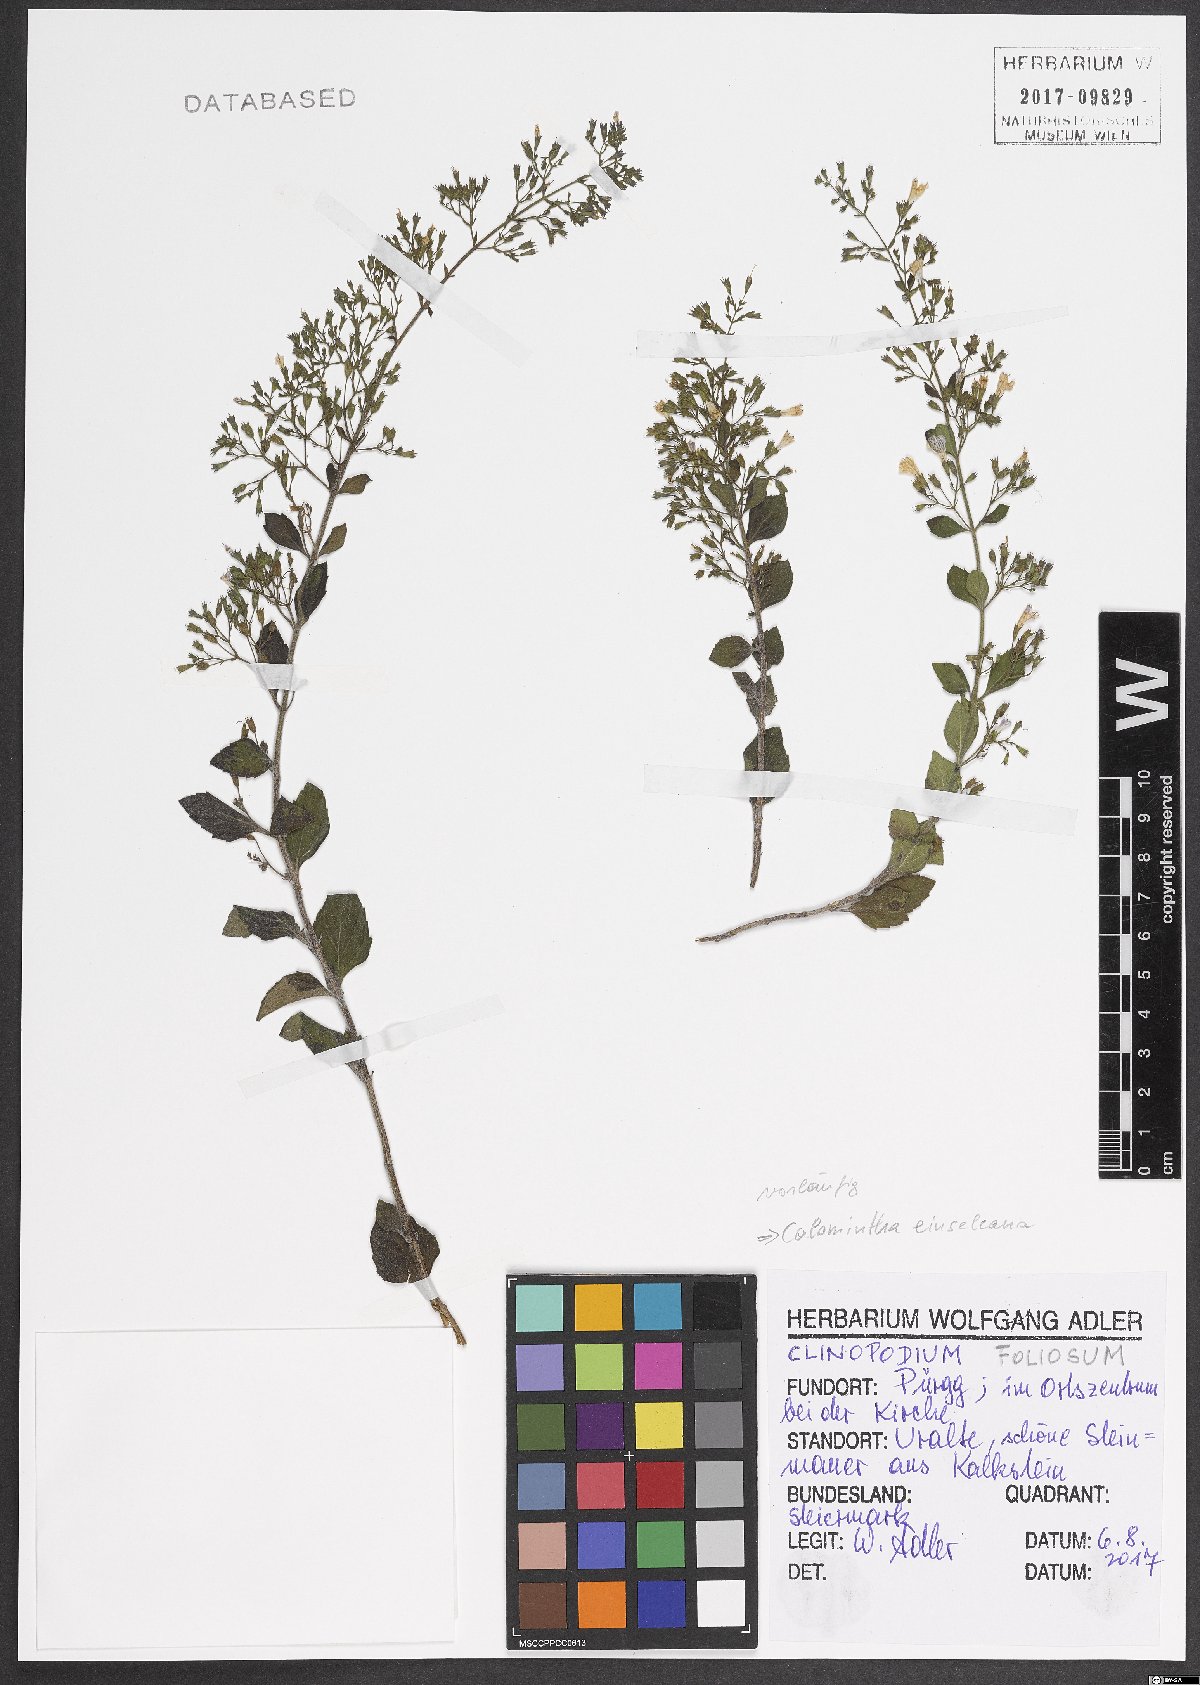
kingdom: Plantae
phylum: Tracheophyta
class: Magnoliopsida
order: Lamiales
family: Lamiaceae
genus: Clinopodium
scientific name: Clinopodium nepeta
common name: Lesser calamint
